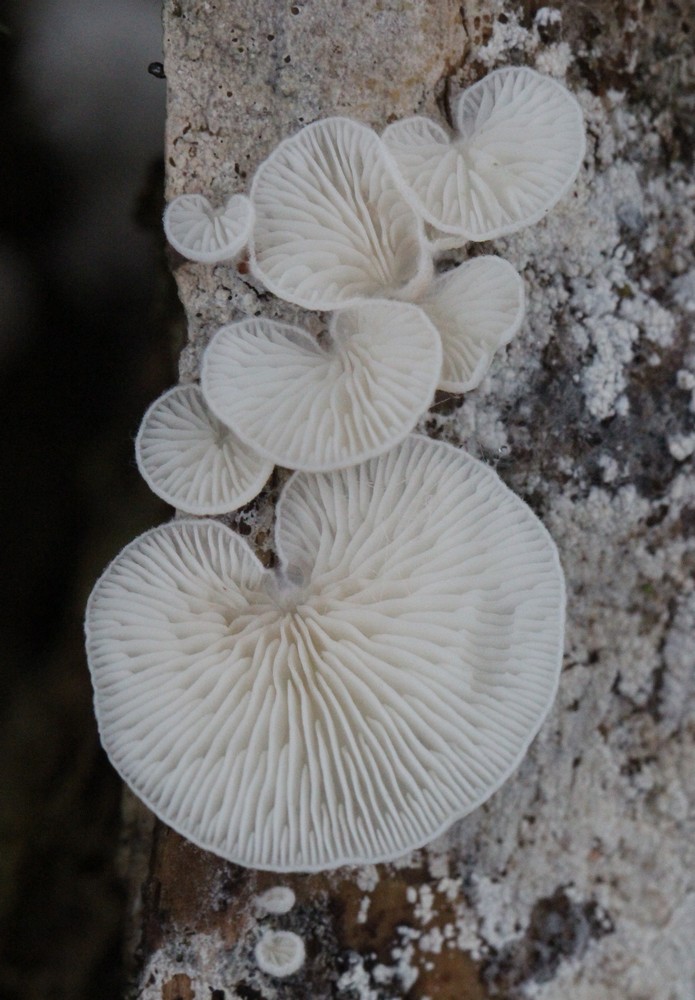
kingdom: Fungi
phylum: Basidiomycota
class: Agaricomycetes
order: Agaricales
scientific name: Agaricales
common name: champignonordenen
